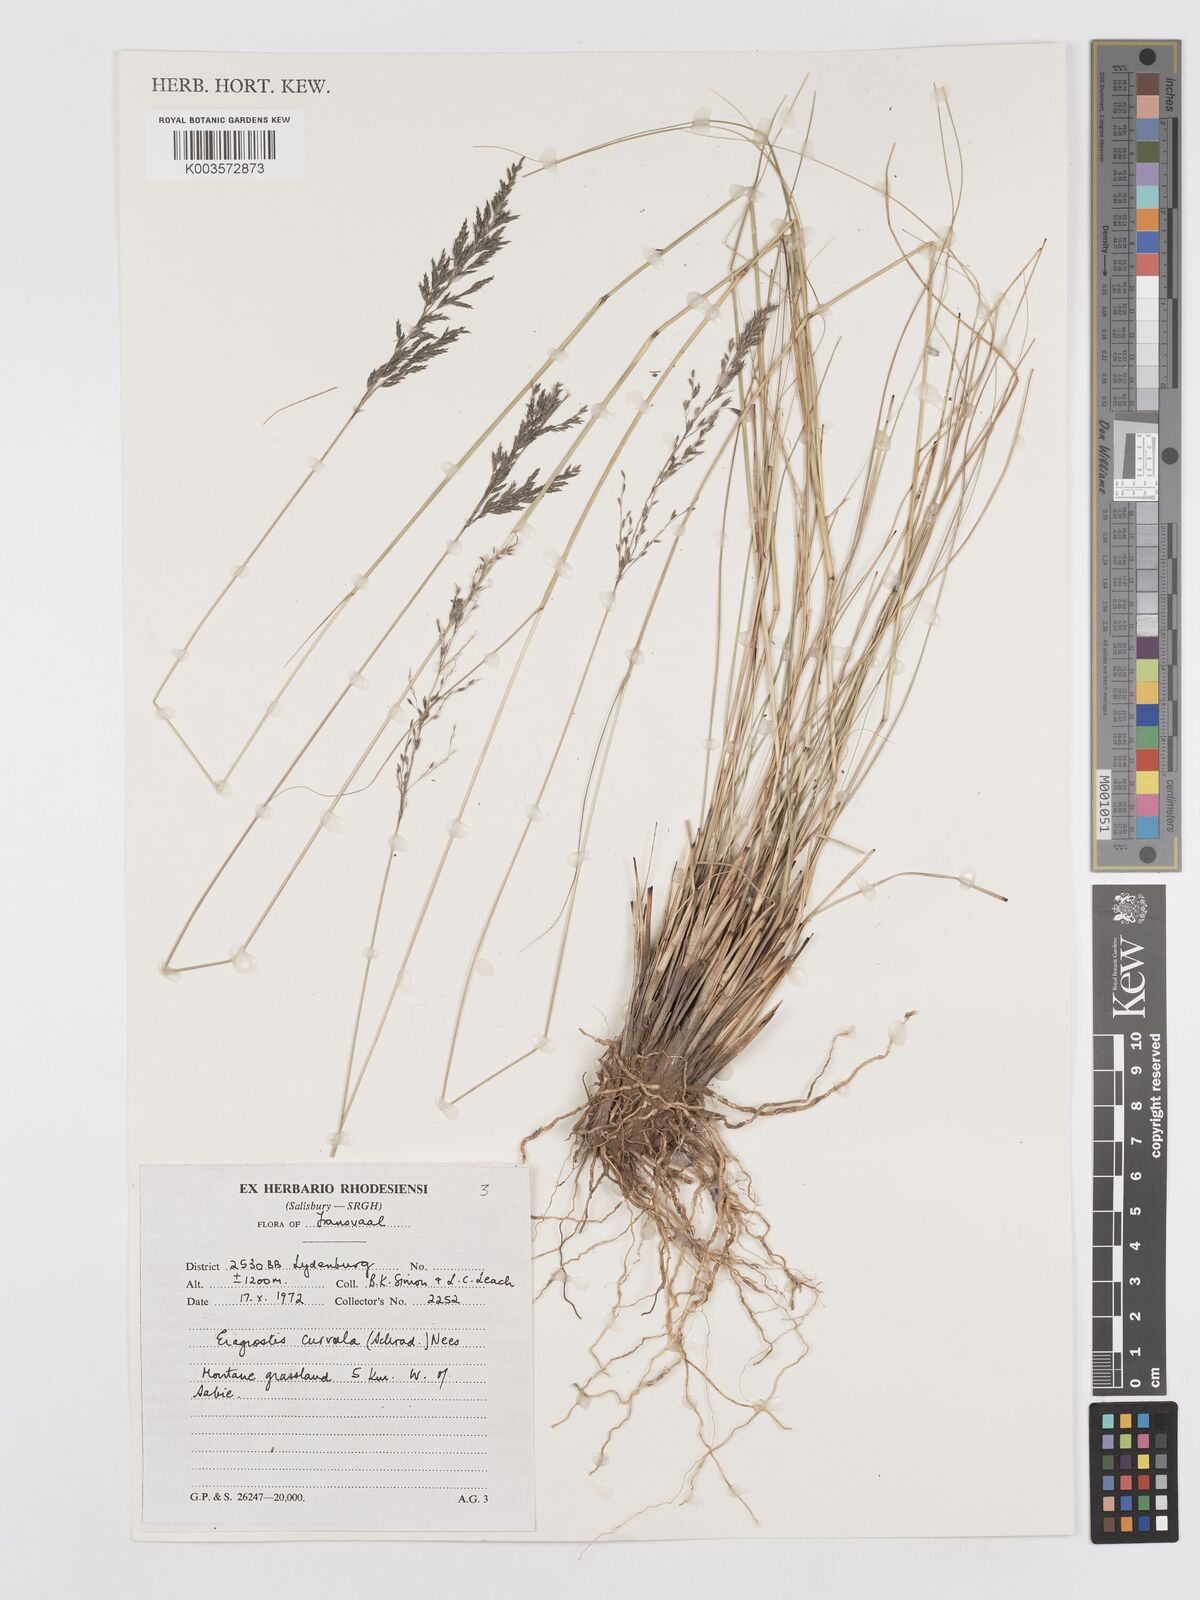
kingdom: Plantae
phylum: Tracheophyta
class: Liliopsida
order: Poales
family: Poaceae
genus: Eragrostis
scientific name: Eragrostis curvula
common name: African love-grass
